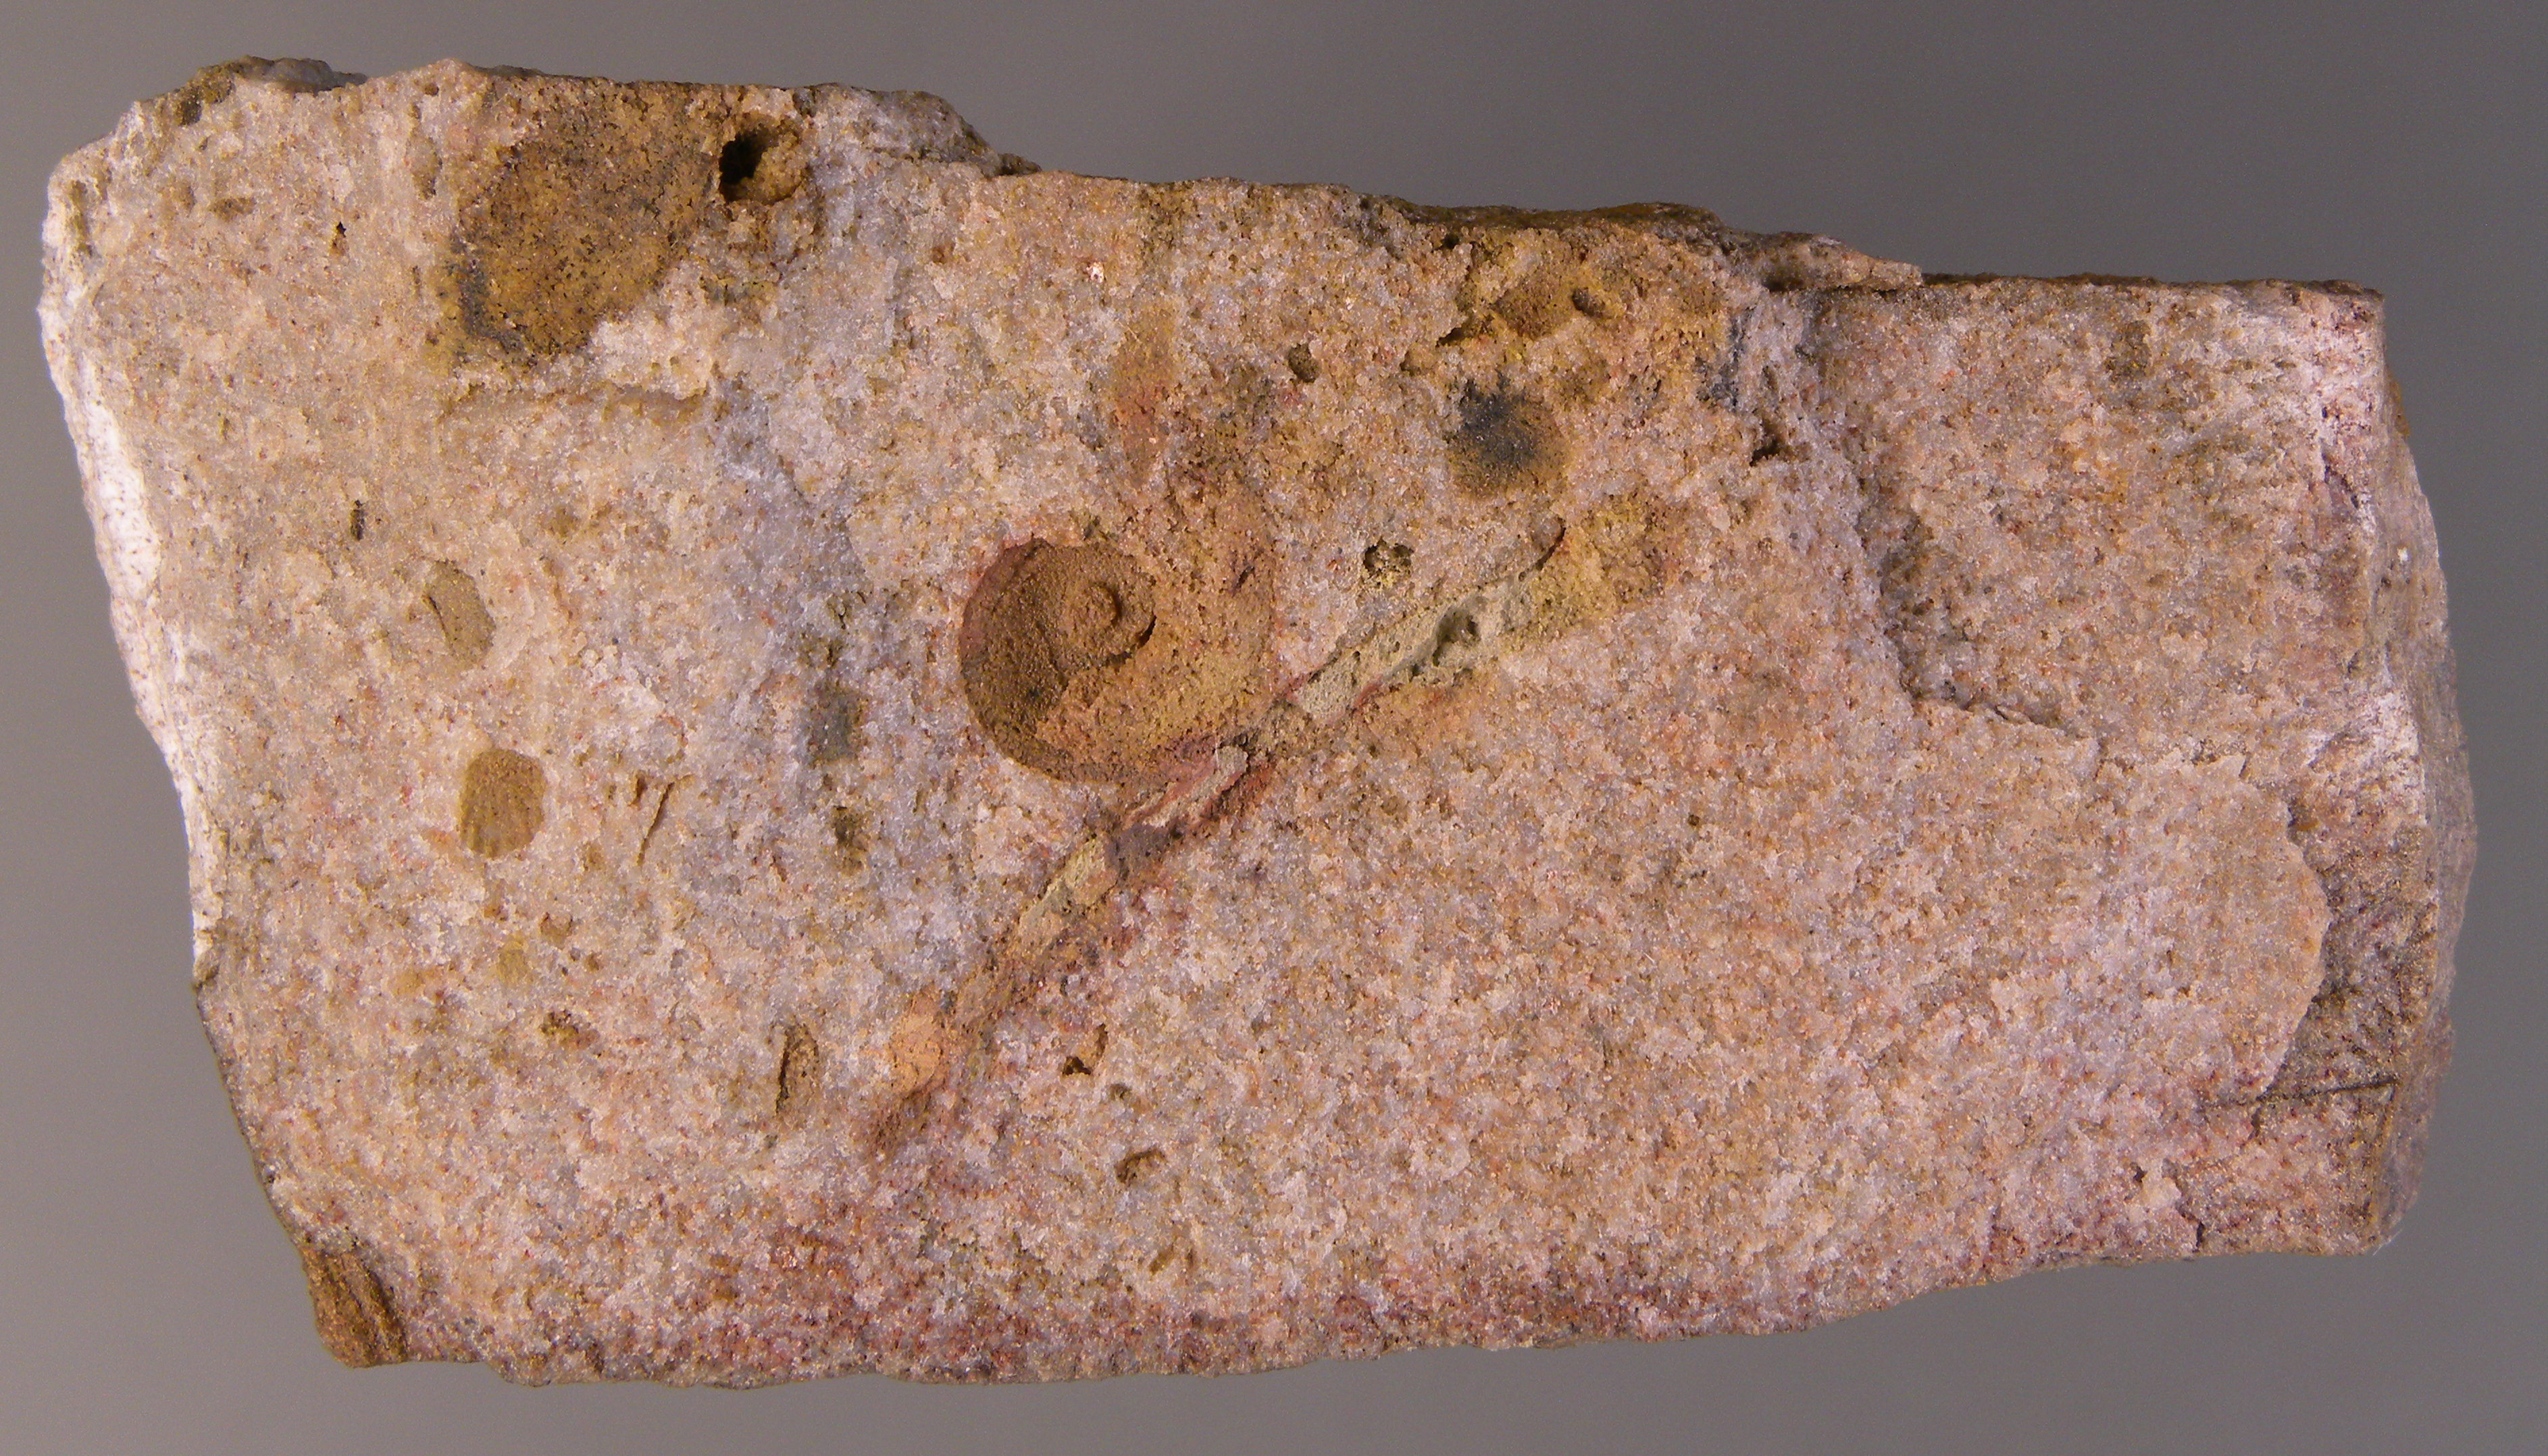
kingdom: Animalia
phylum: Mollusca
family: Tropidodiscidae
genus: Tropidodiscus
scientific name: Tropidodiscus
